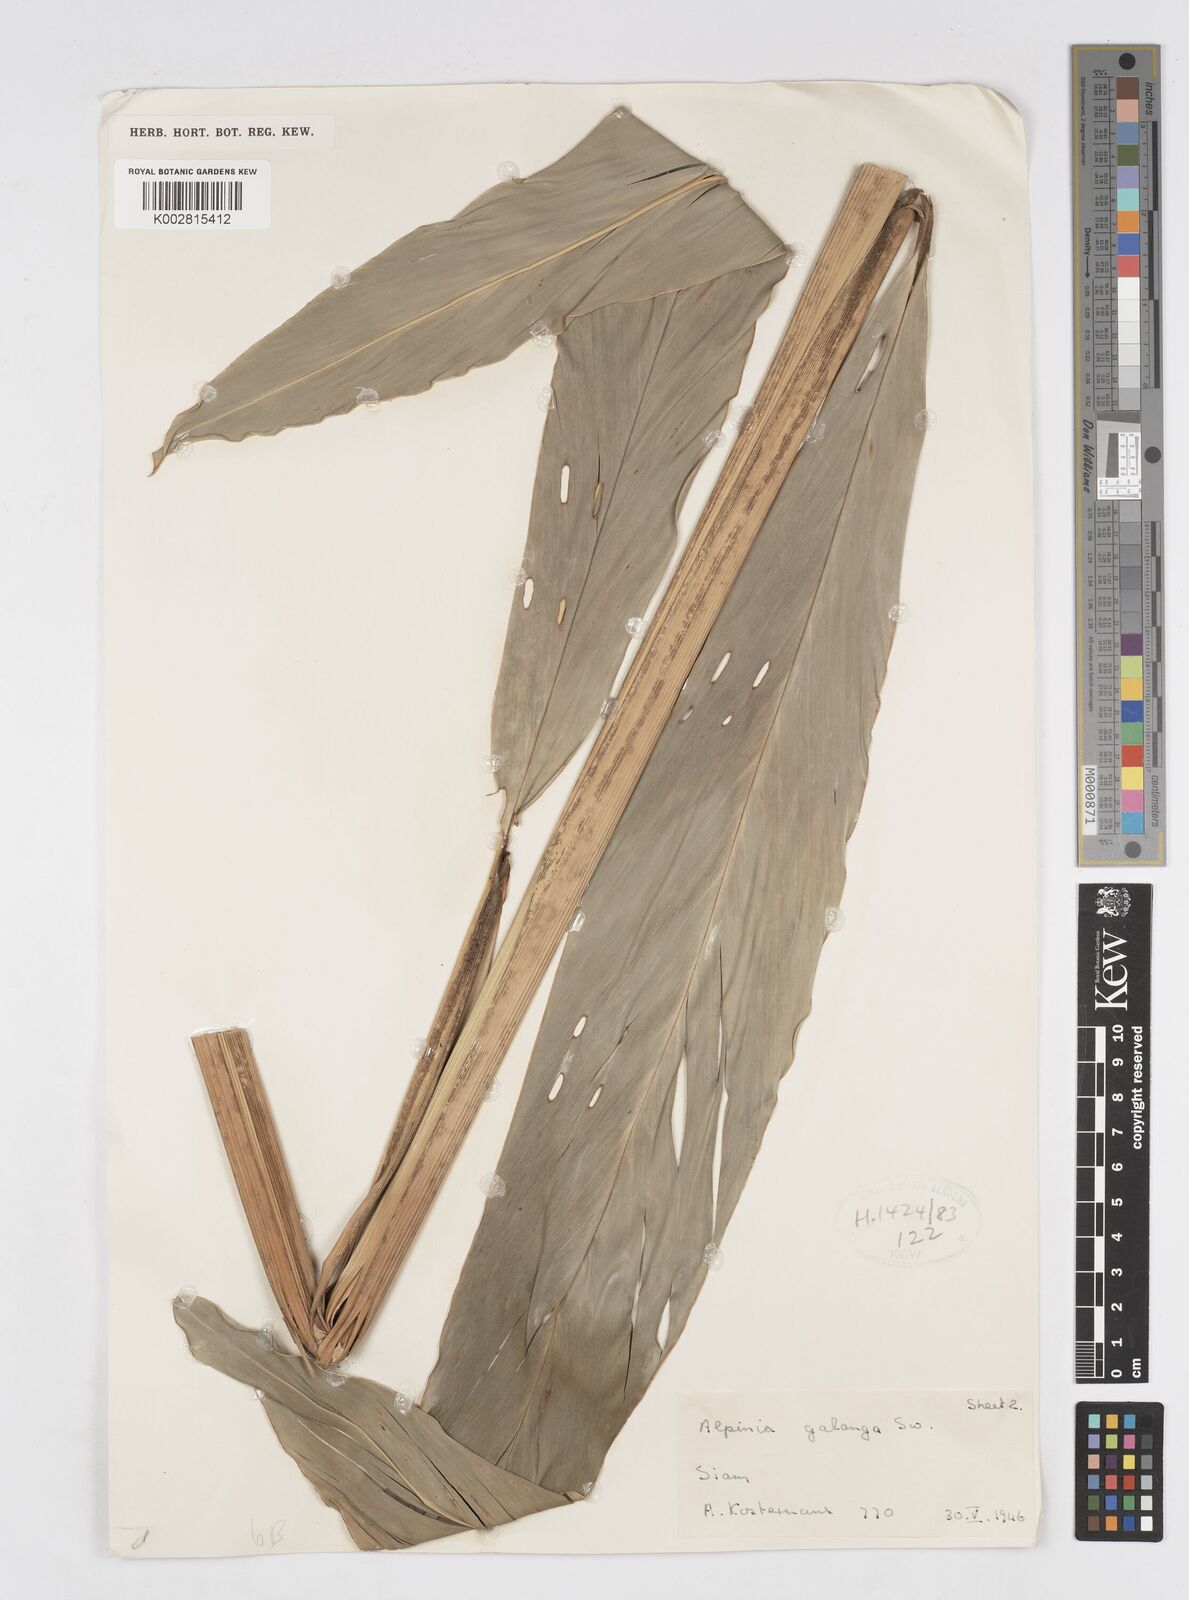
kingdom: Plantae
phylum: Tracheophyta
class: Liliopsida
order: Zingiberales
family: Zingiberaceae
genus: Alpinia
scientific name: Alpinia galanga
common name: Siamese-ginger
